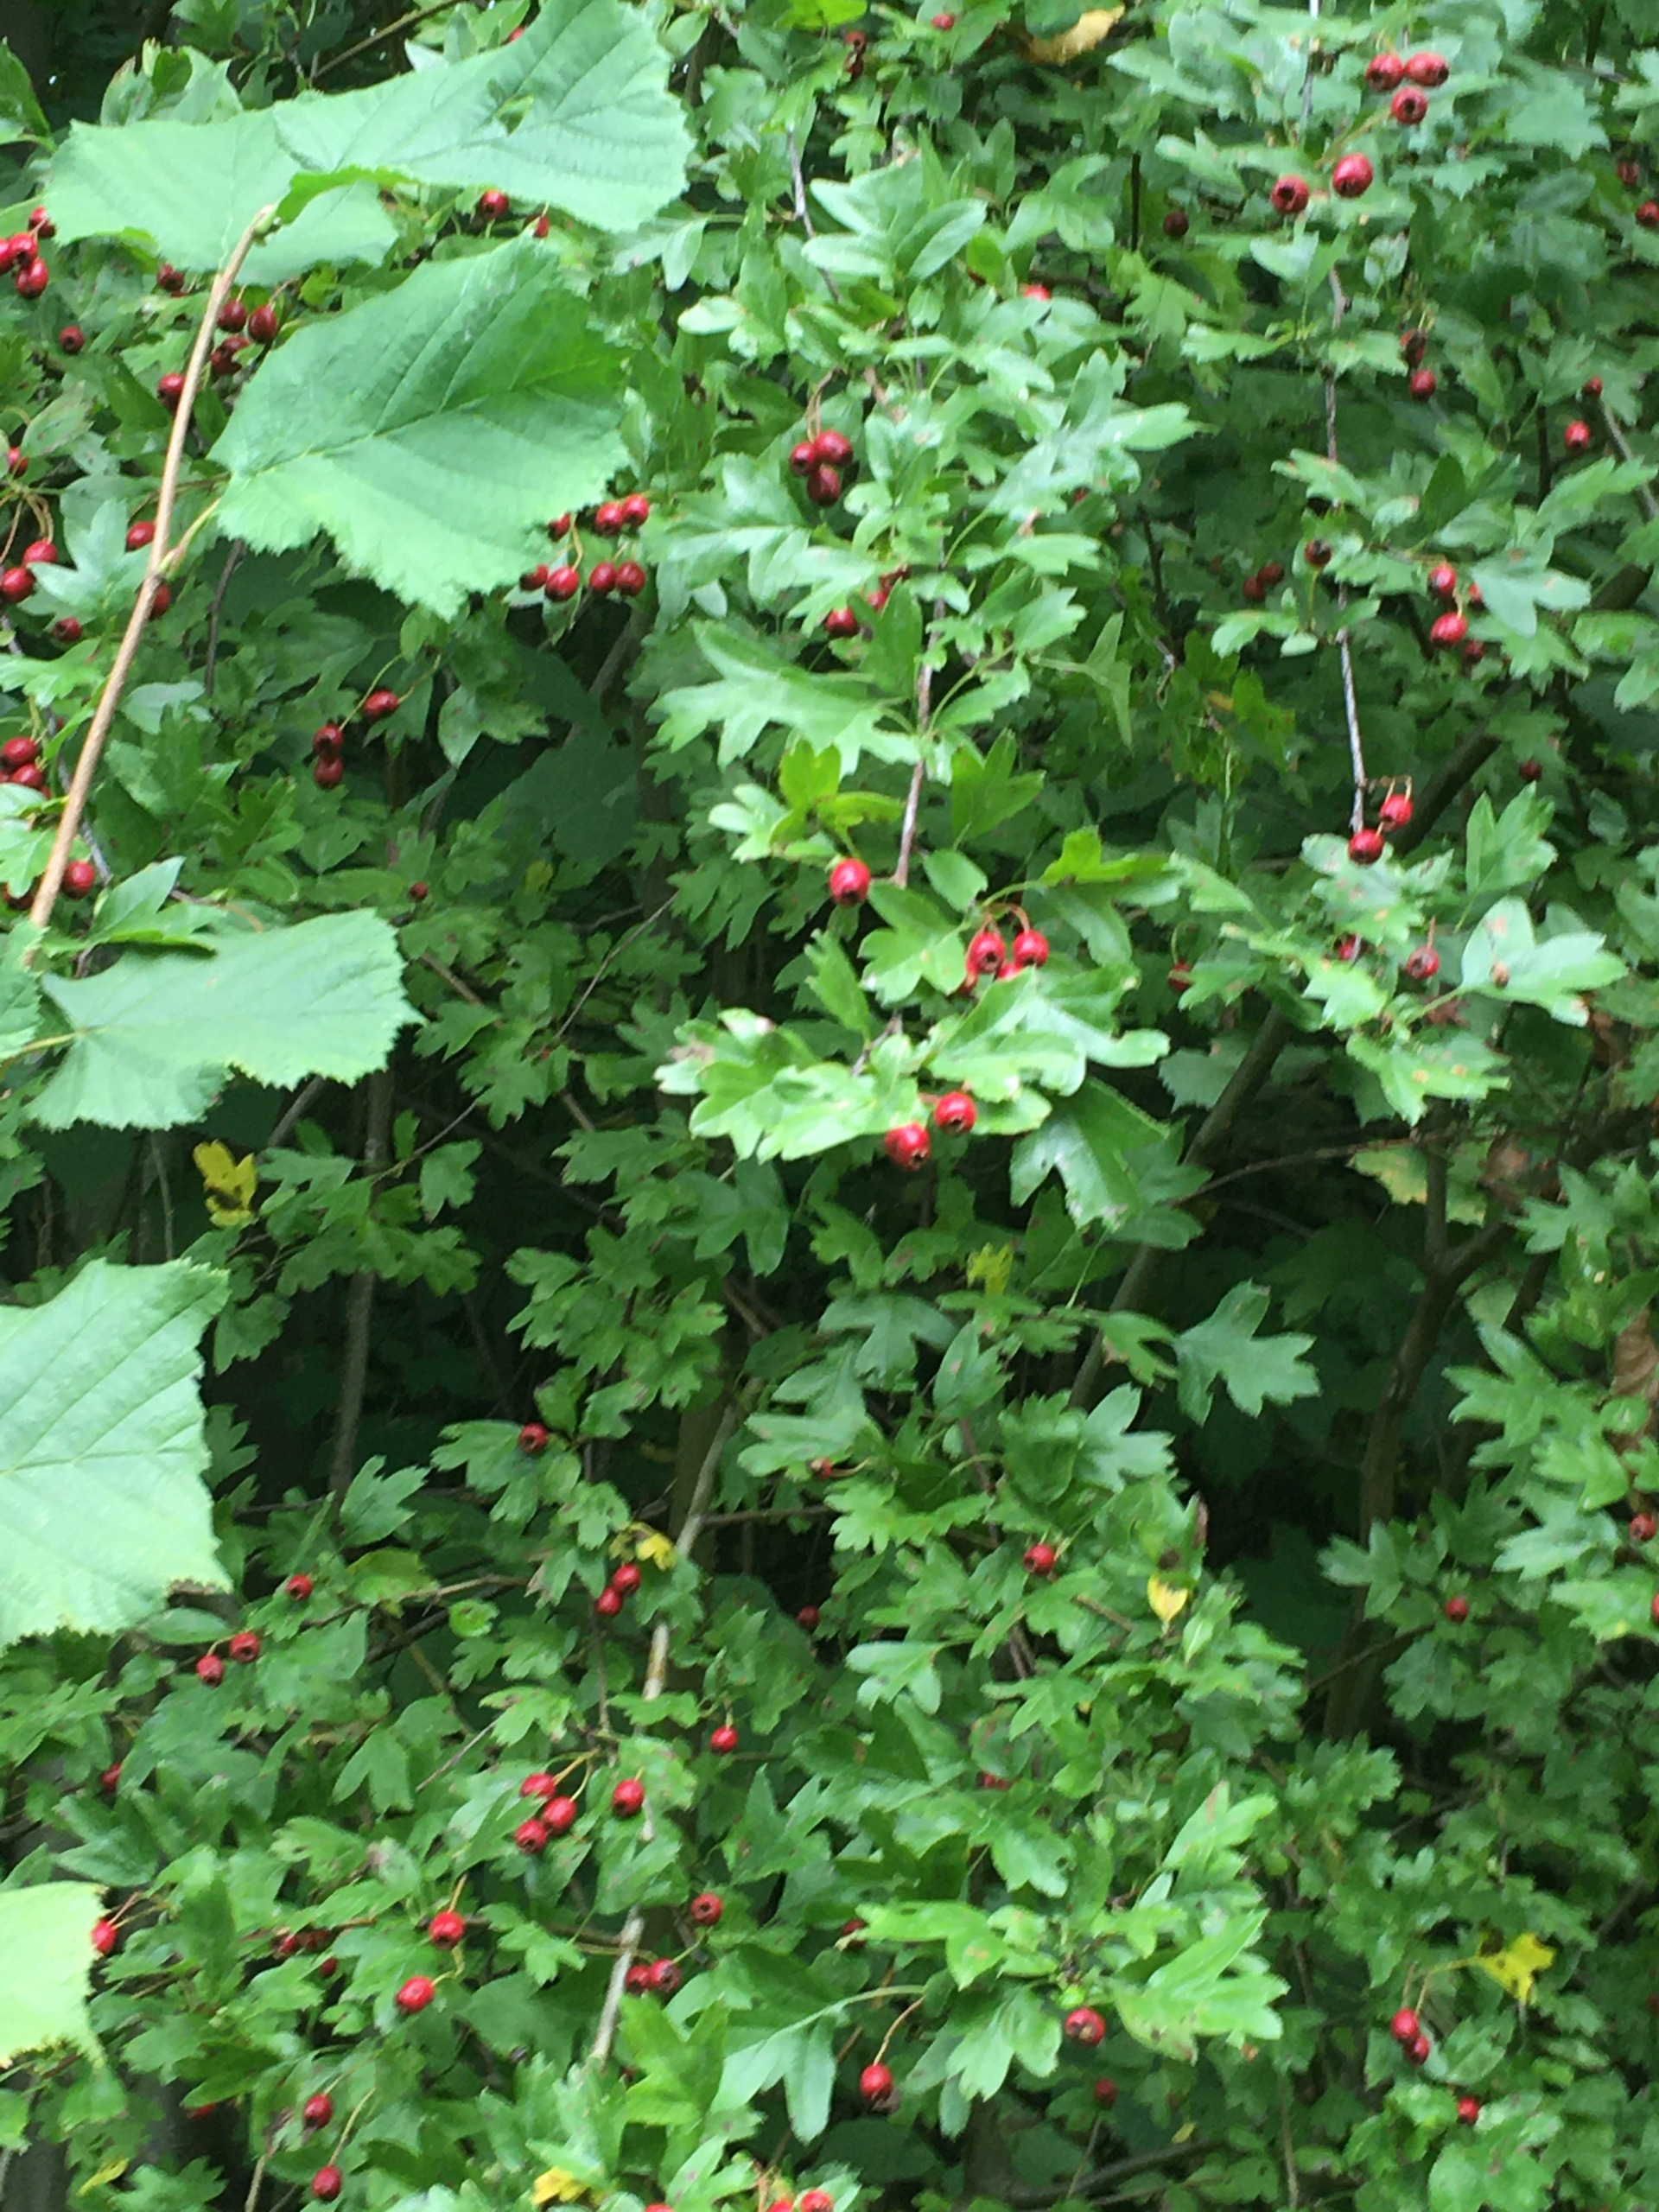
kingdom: Plantae
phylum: Tracheophyta
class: Magnoliopsida
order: Rosales
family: Rosaceae
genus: Crataegus
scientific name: Crataegus monogyna
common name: Engriflet hvidtjørn
